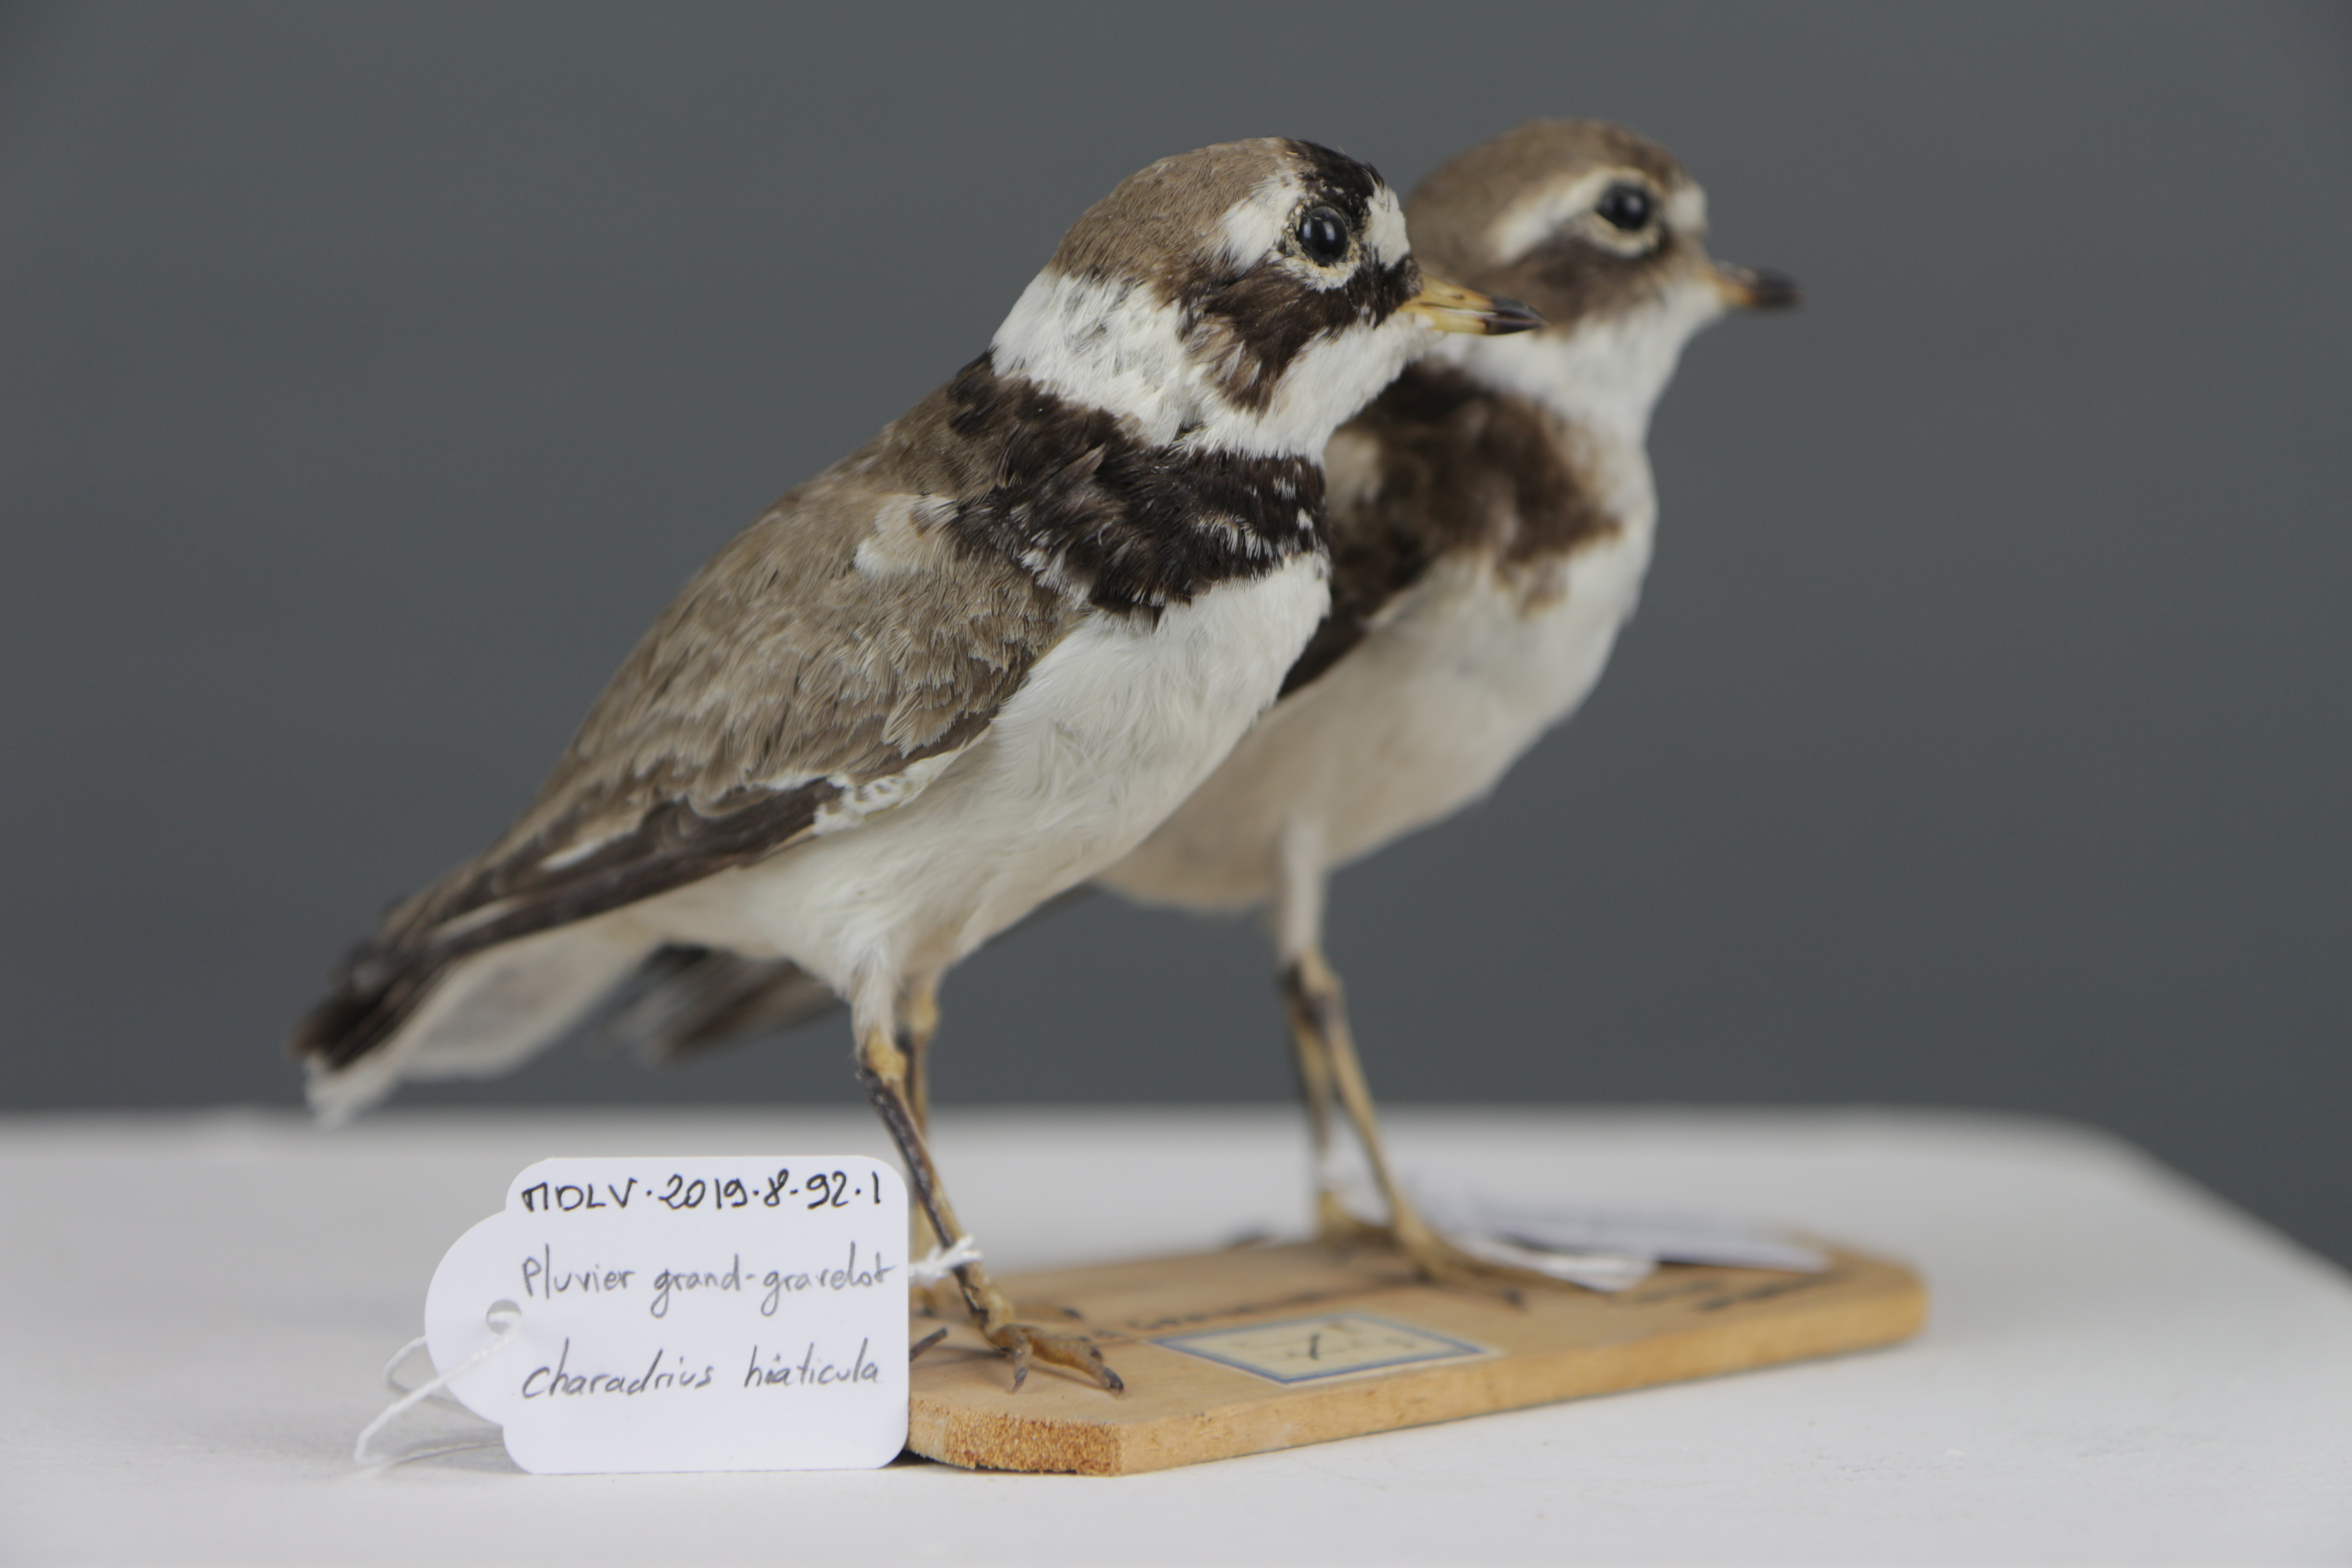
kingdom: Animalia
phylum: Chordata
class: Aves
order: Charadriiformes
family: Charadriidae
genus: Charadrius
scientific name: Charadrius hiaticula
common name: Common ringed plover
